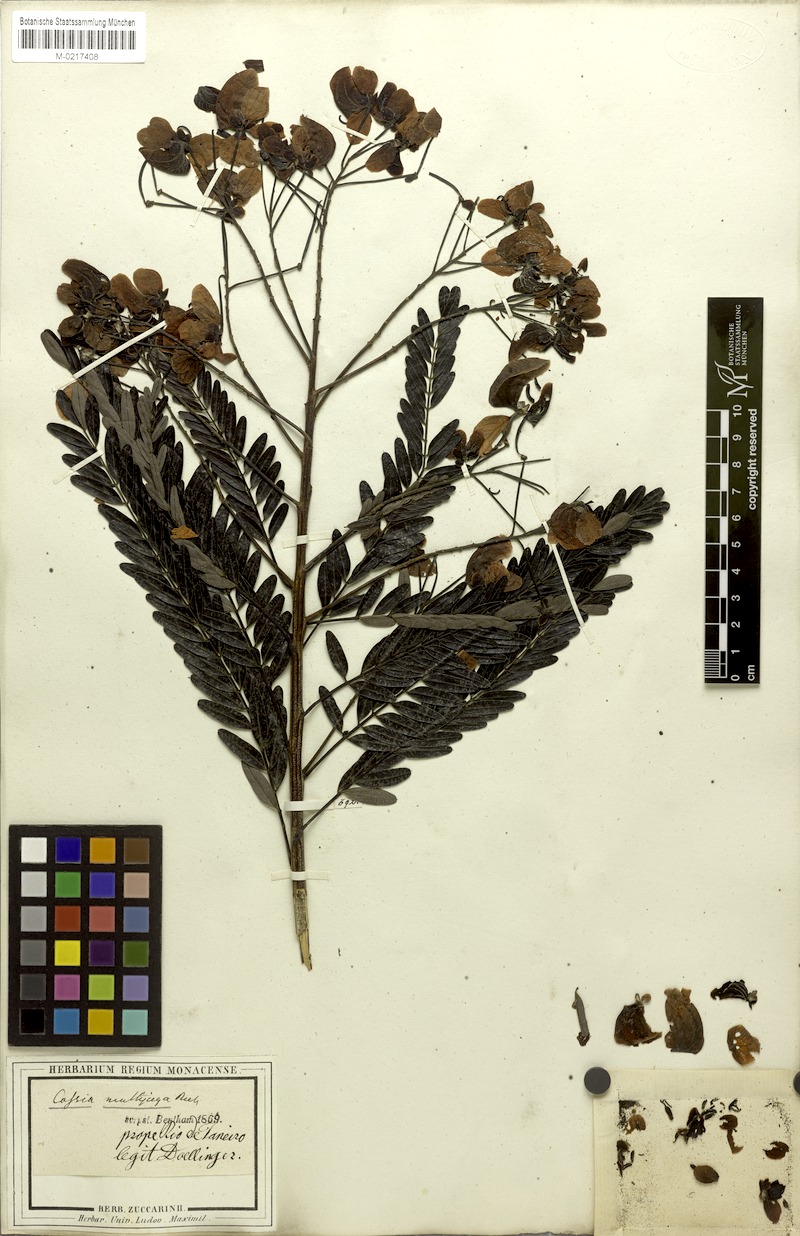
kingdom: Plantae
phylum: Tracheophyta
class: Magnoliopsida
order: Fabales
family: Fabaceae
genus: Senna
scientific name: Senna multijuga
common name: False sicklepod
